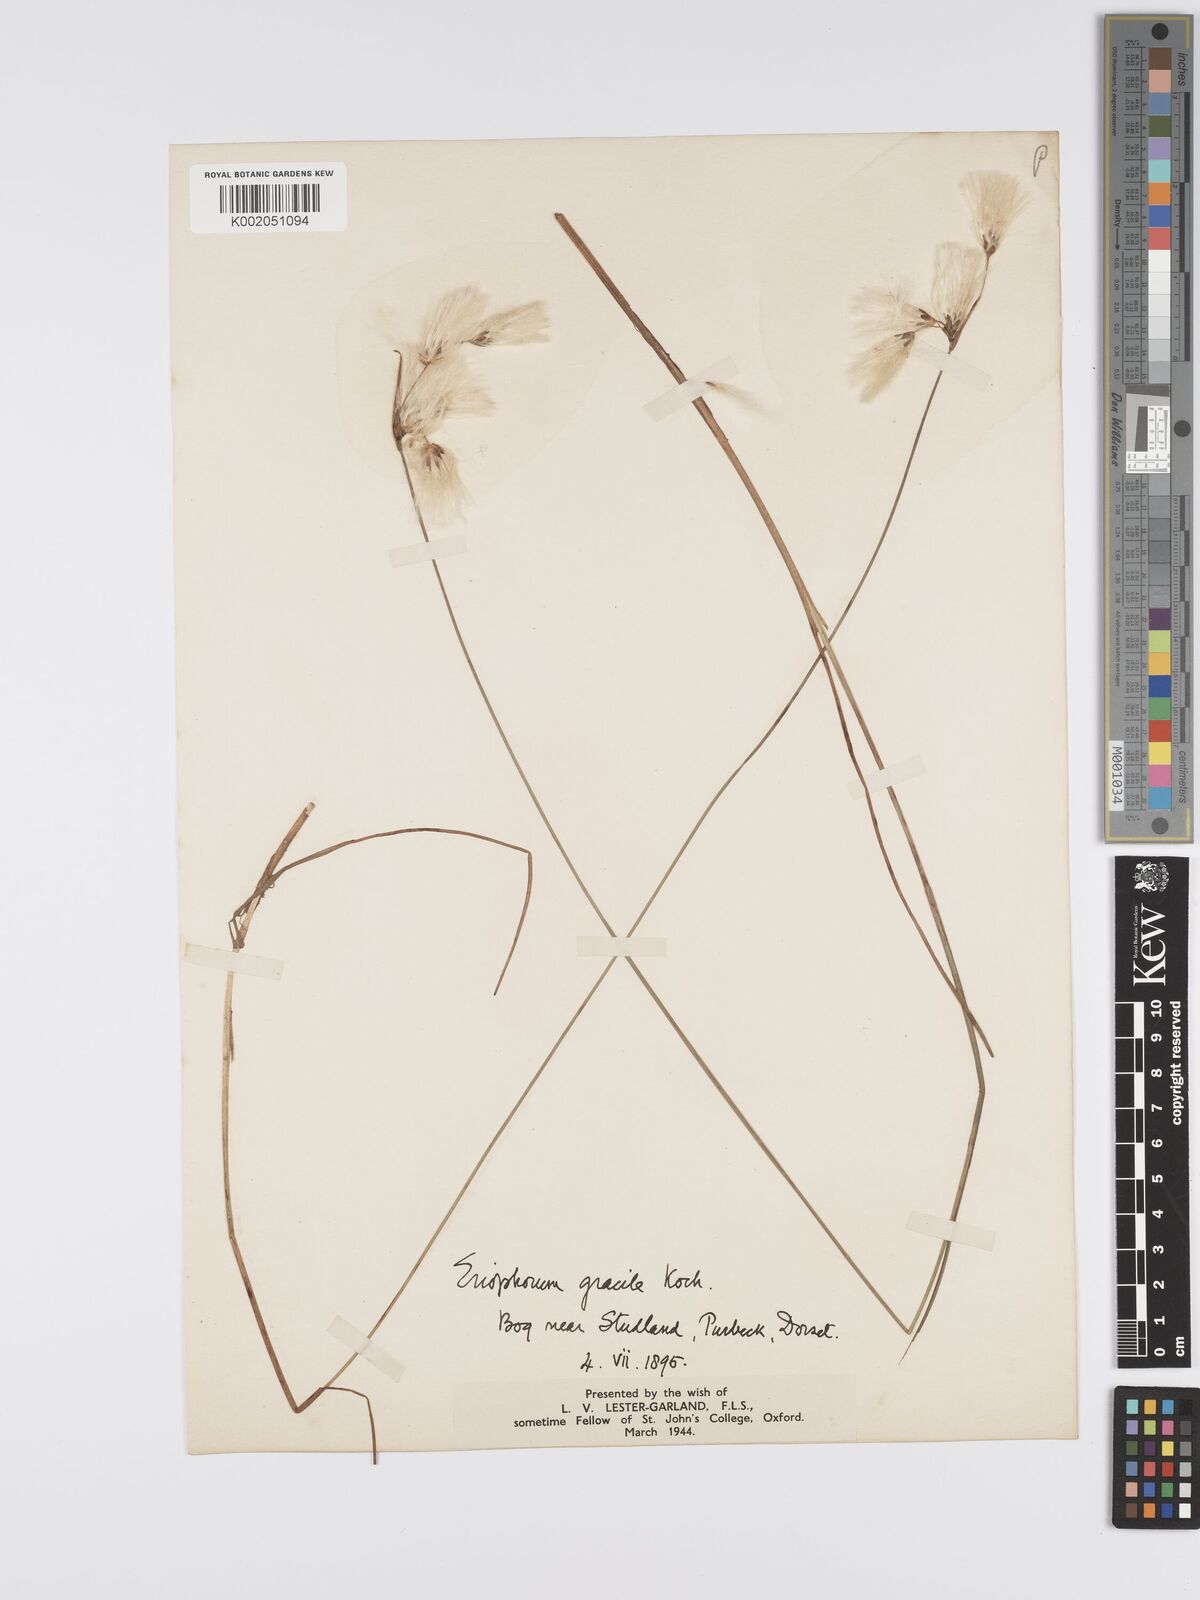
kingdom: Plantae
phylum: Tracheophyta
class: Liliopsida
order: Poales
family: Cyperaceae
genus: Eriophorum
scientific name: Eriophorum gracile
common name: Slender cottongrass
